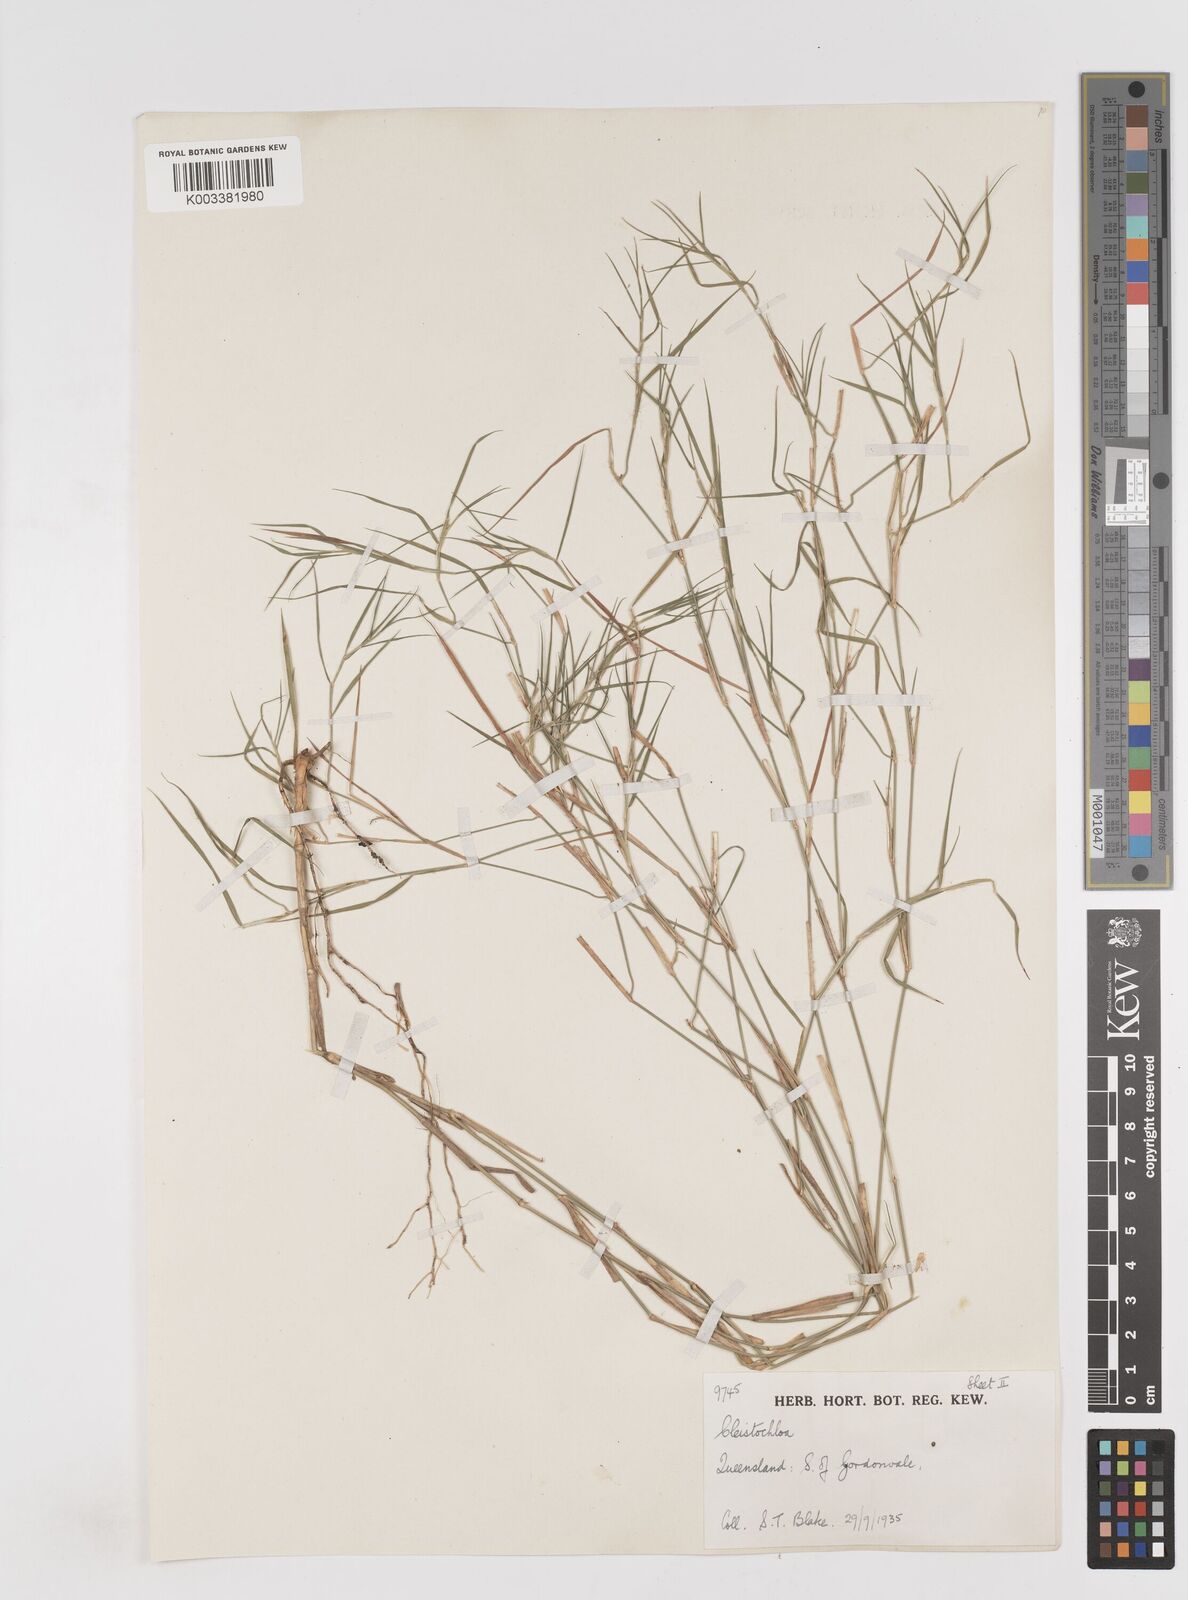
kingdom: Plantae
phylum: Tracheophyta
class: Liliopsida
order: Poales
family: Poaceae
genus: Cleistochloa
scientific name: Cleistochloa
